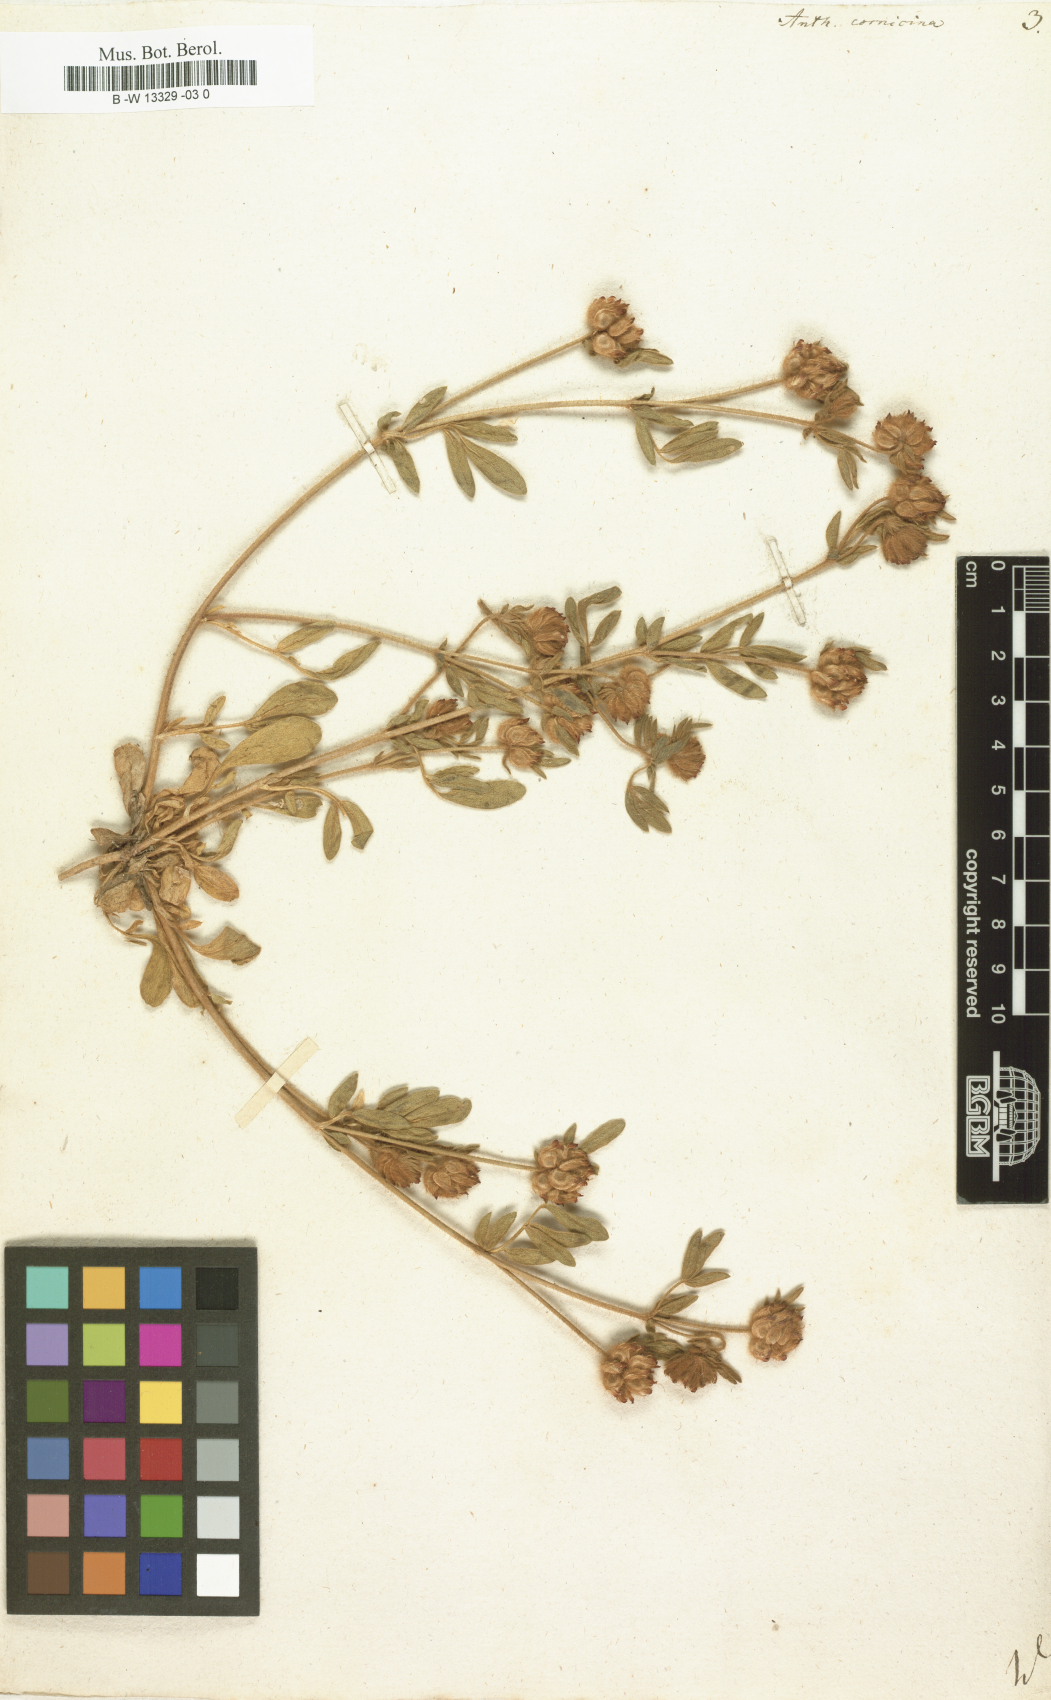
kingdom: Plantae
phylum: Tracheophyta
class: Magnoliopsida
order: Fabales
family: Fabaceae
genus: Anthyllis
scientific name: Anthyllis cornicina
